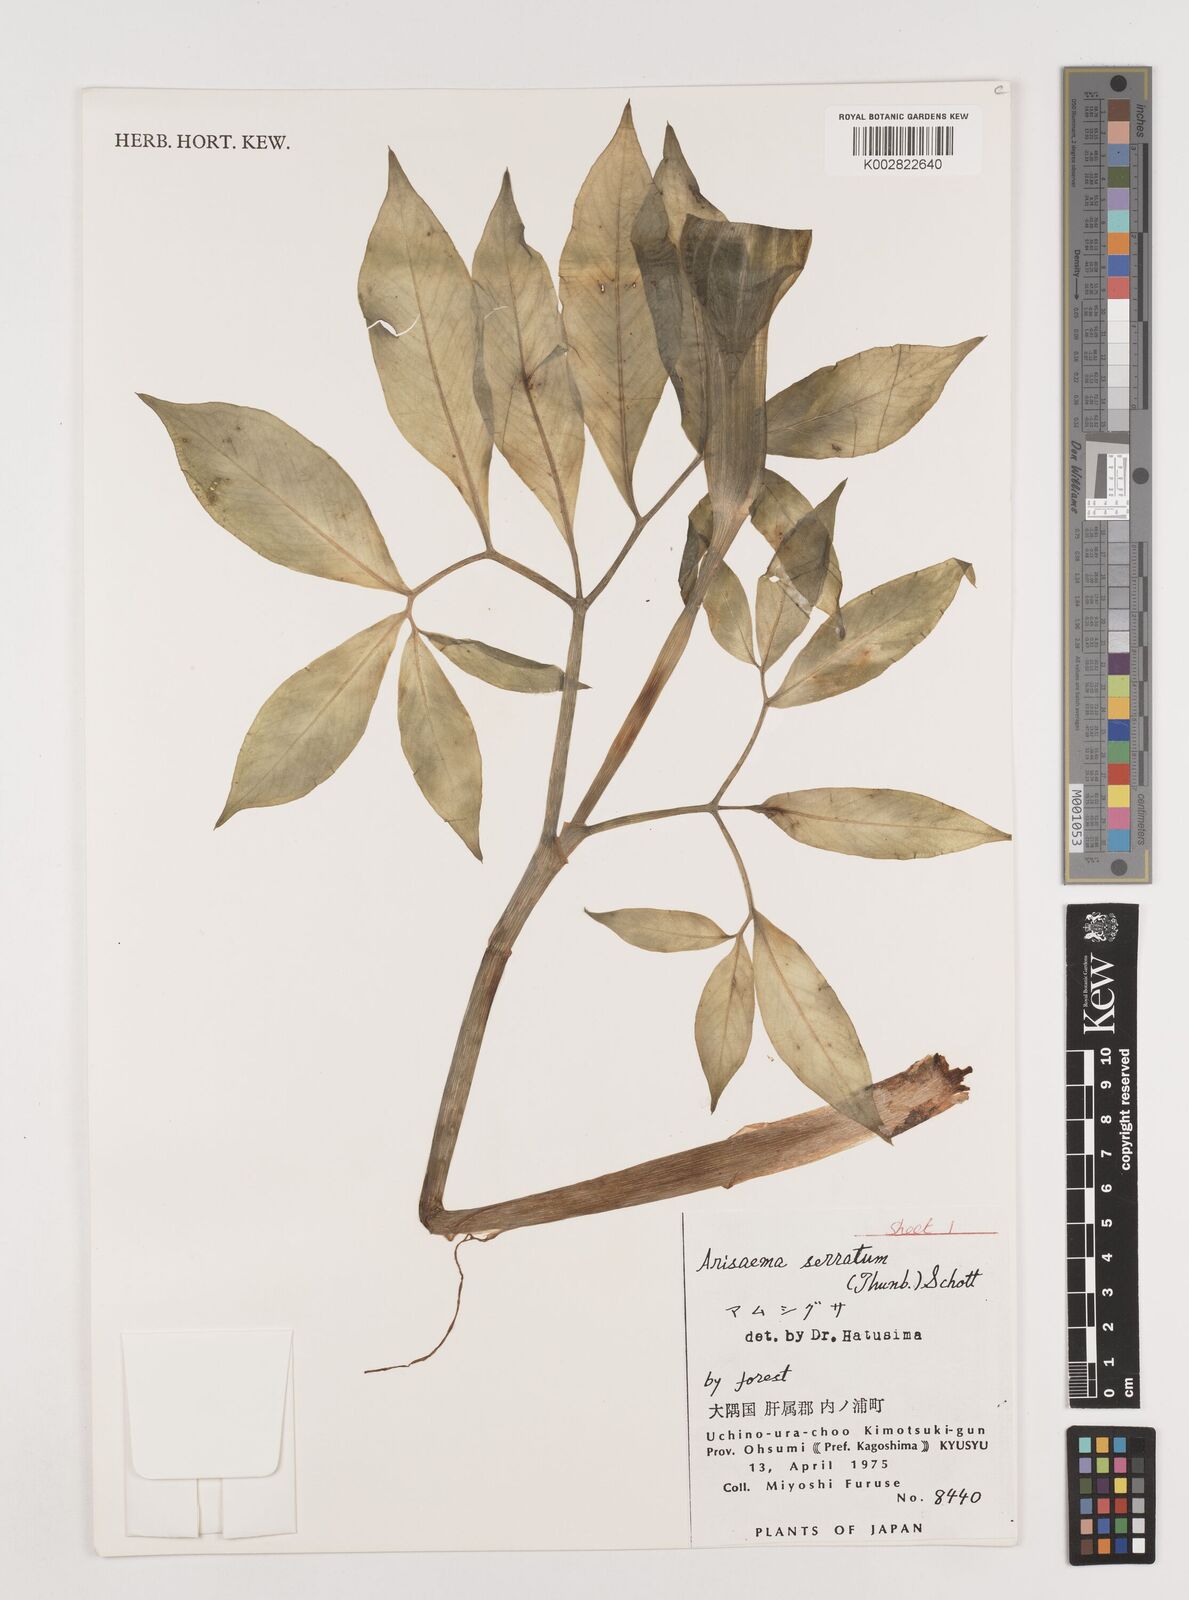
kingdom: Plantae
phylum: Tracheophyta
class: Liliopsida
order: Alismatales
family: Araceae
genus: Arisaema
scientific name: Arisaema serratum
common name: Japanese arisaema
